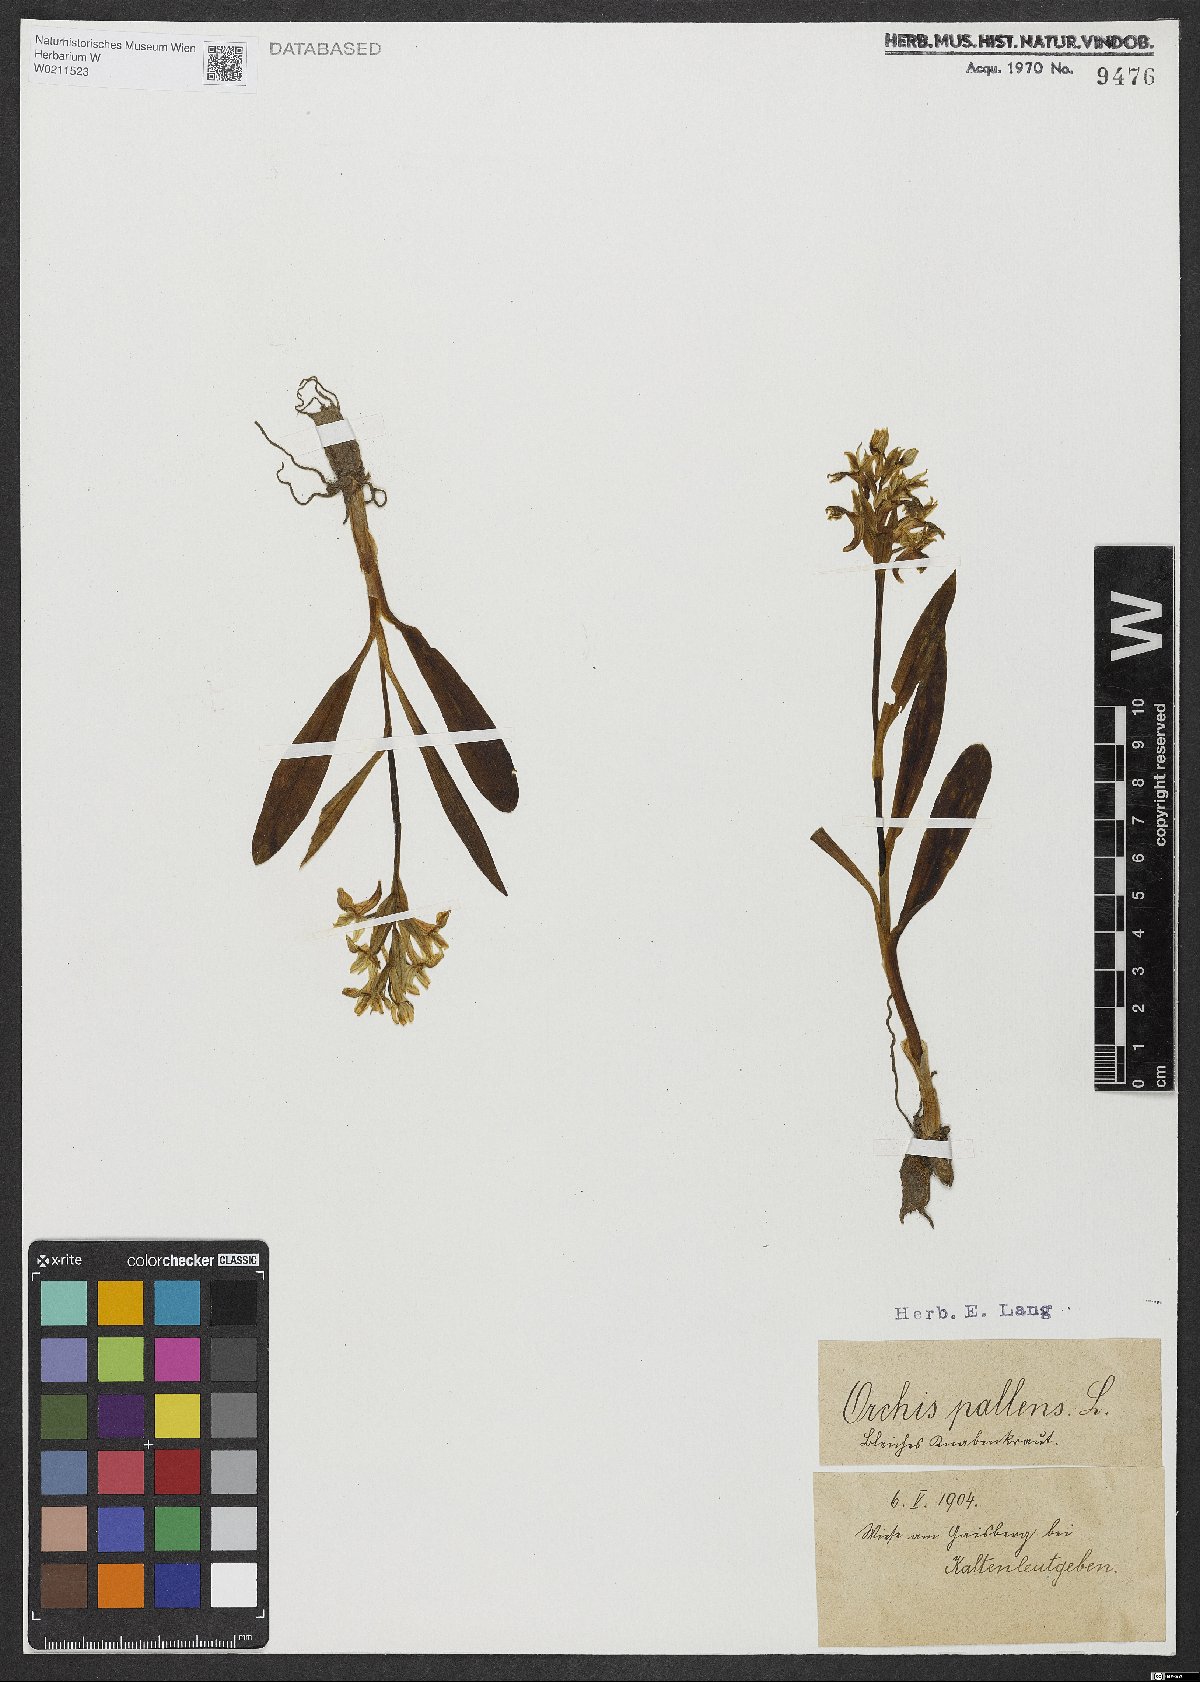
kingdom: Plantae
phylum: Tracheophyta
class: Liliopsida
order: Asparagales
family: Orchidaceae
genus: Orchis
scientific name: Orchis pallens
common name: Pale-flowered orchid
